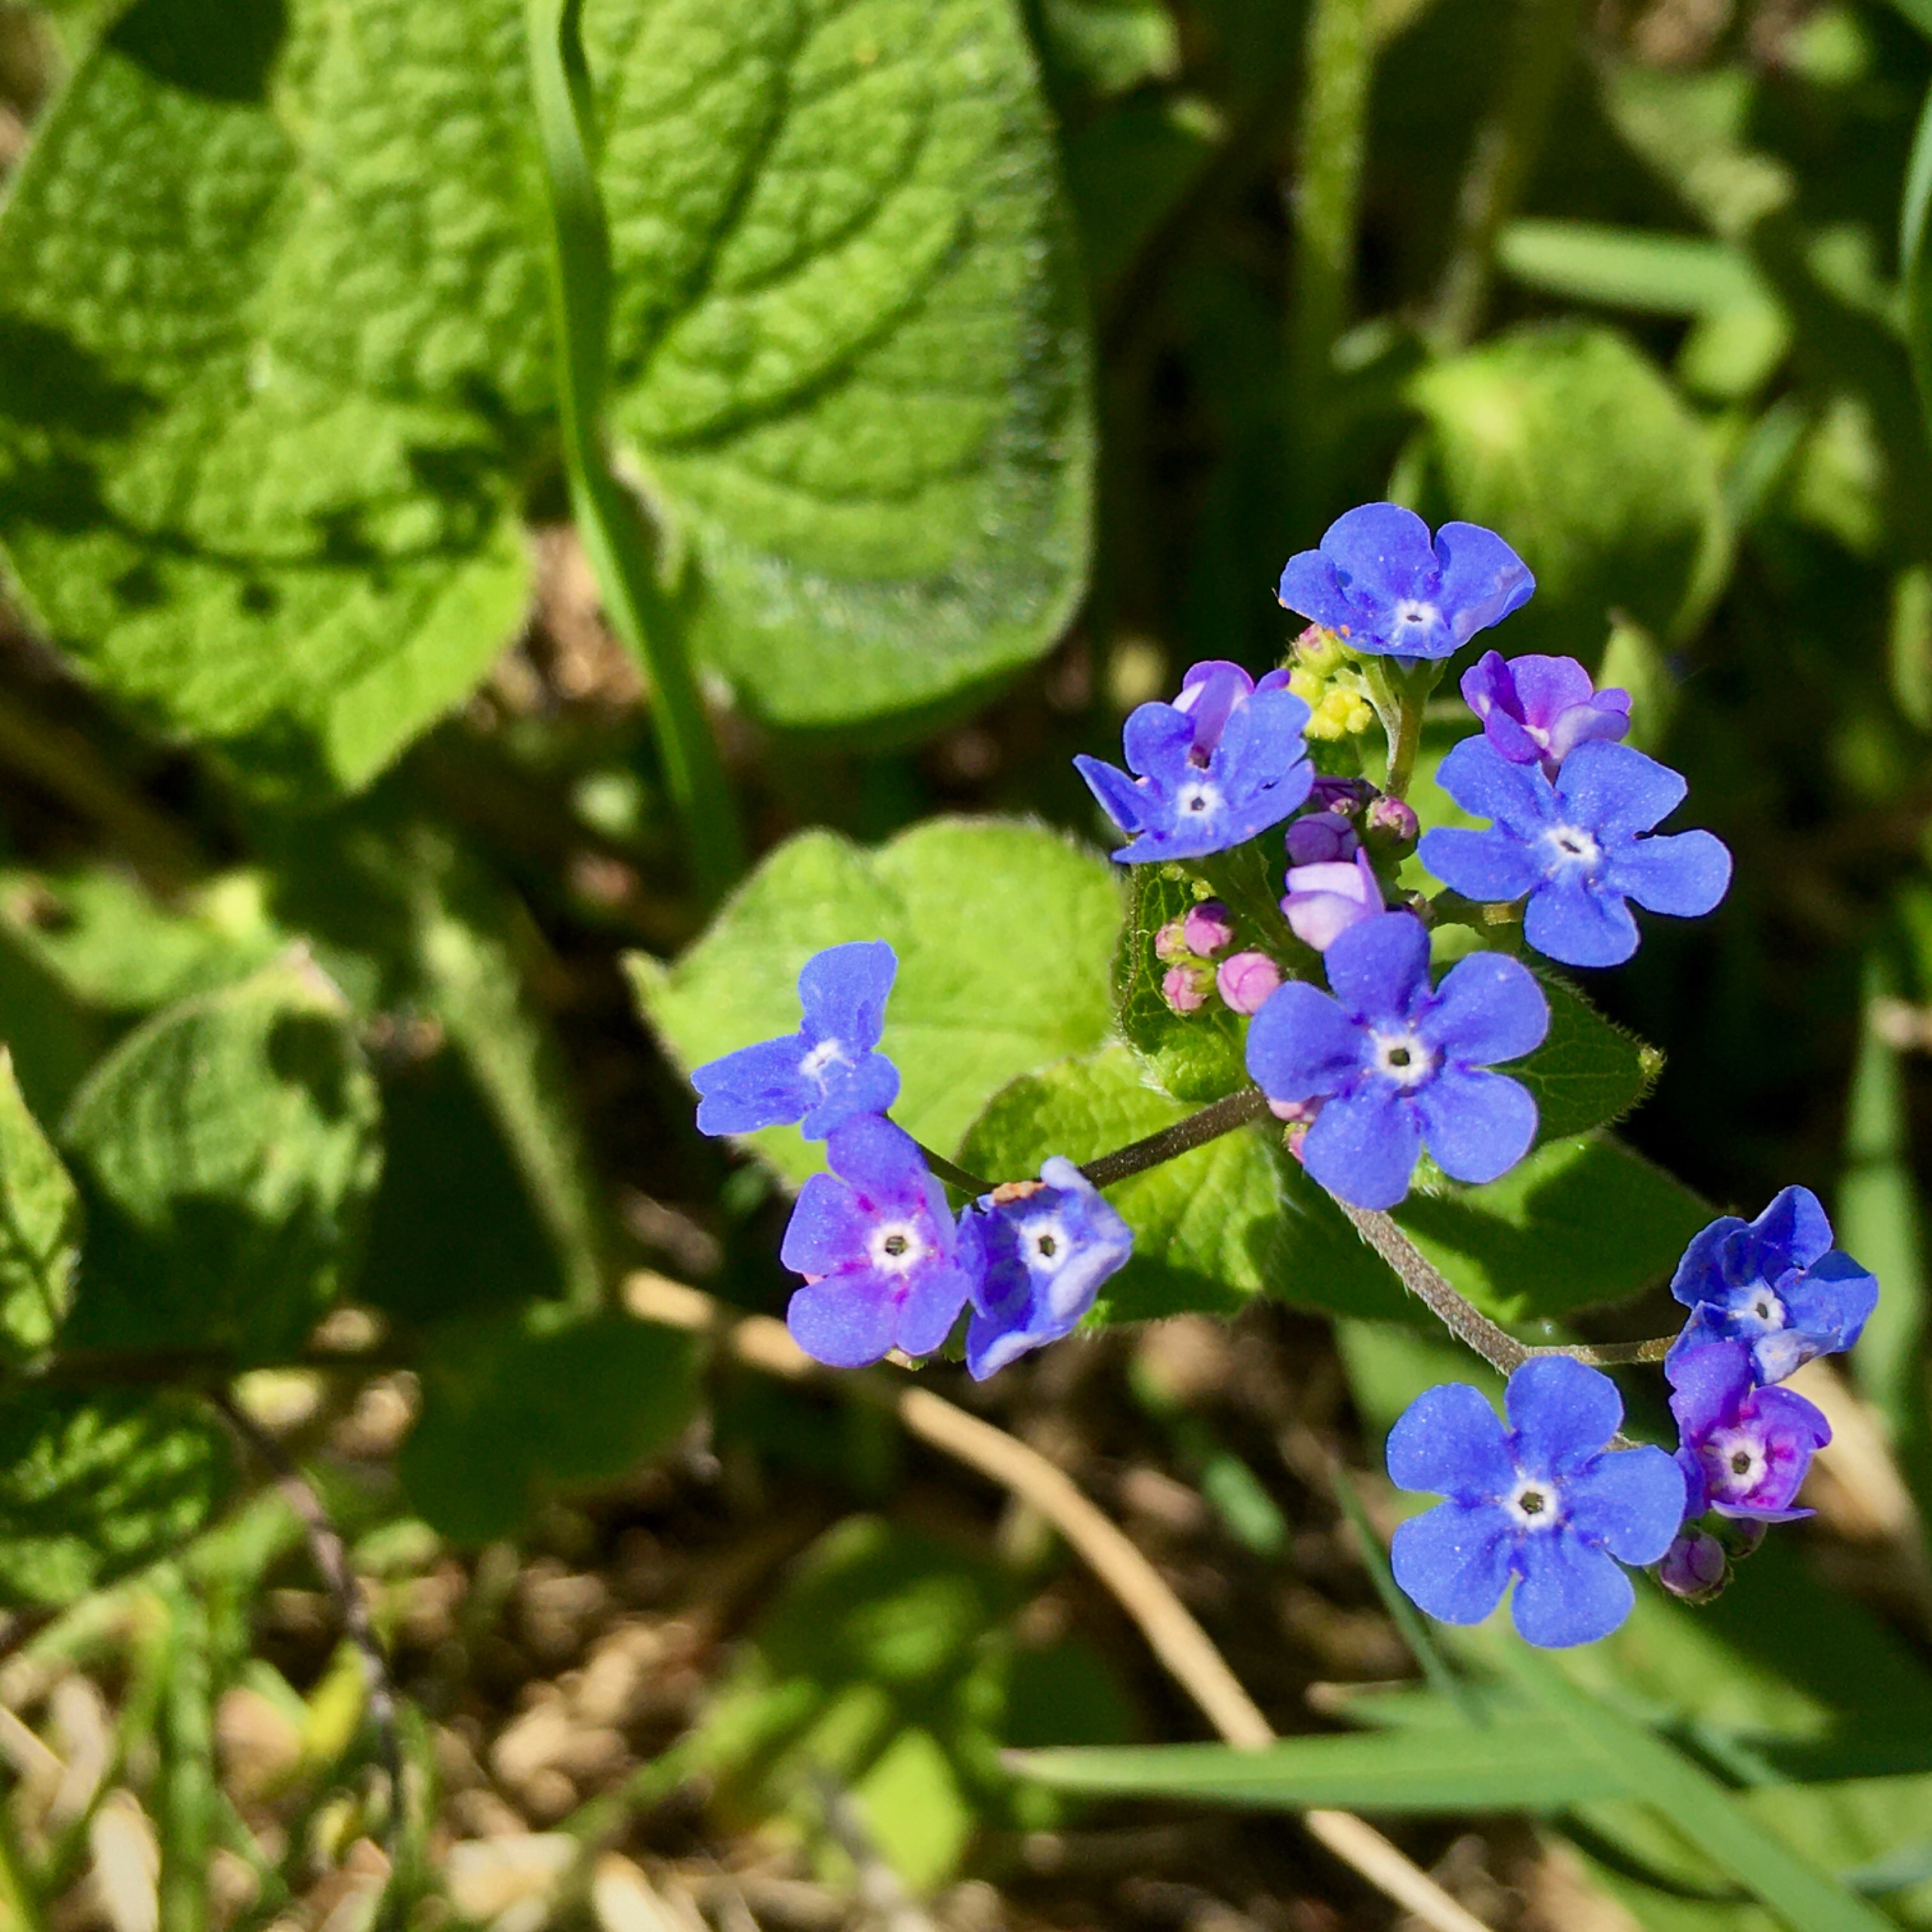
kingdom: Plantae
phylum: Tracheophyta
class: Magnoliopsida
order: Boraginales
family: Boraginaceae
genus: Brunnera
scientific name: Brunnera macrophylla
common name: Kærmindesøster
